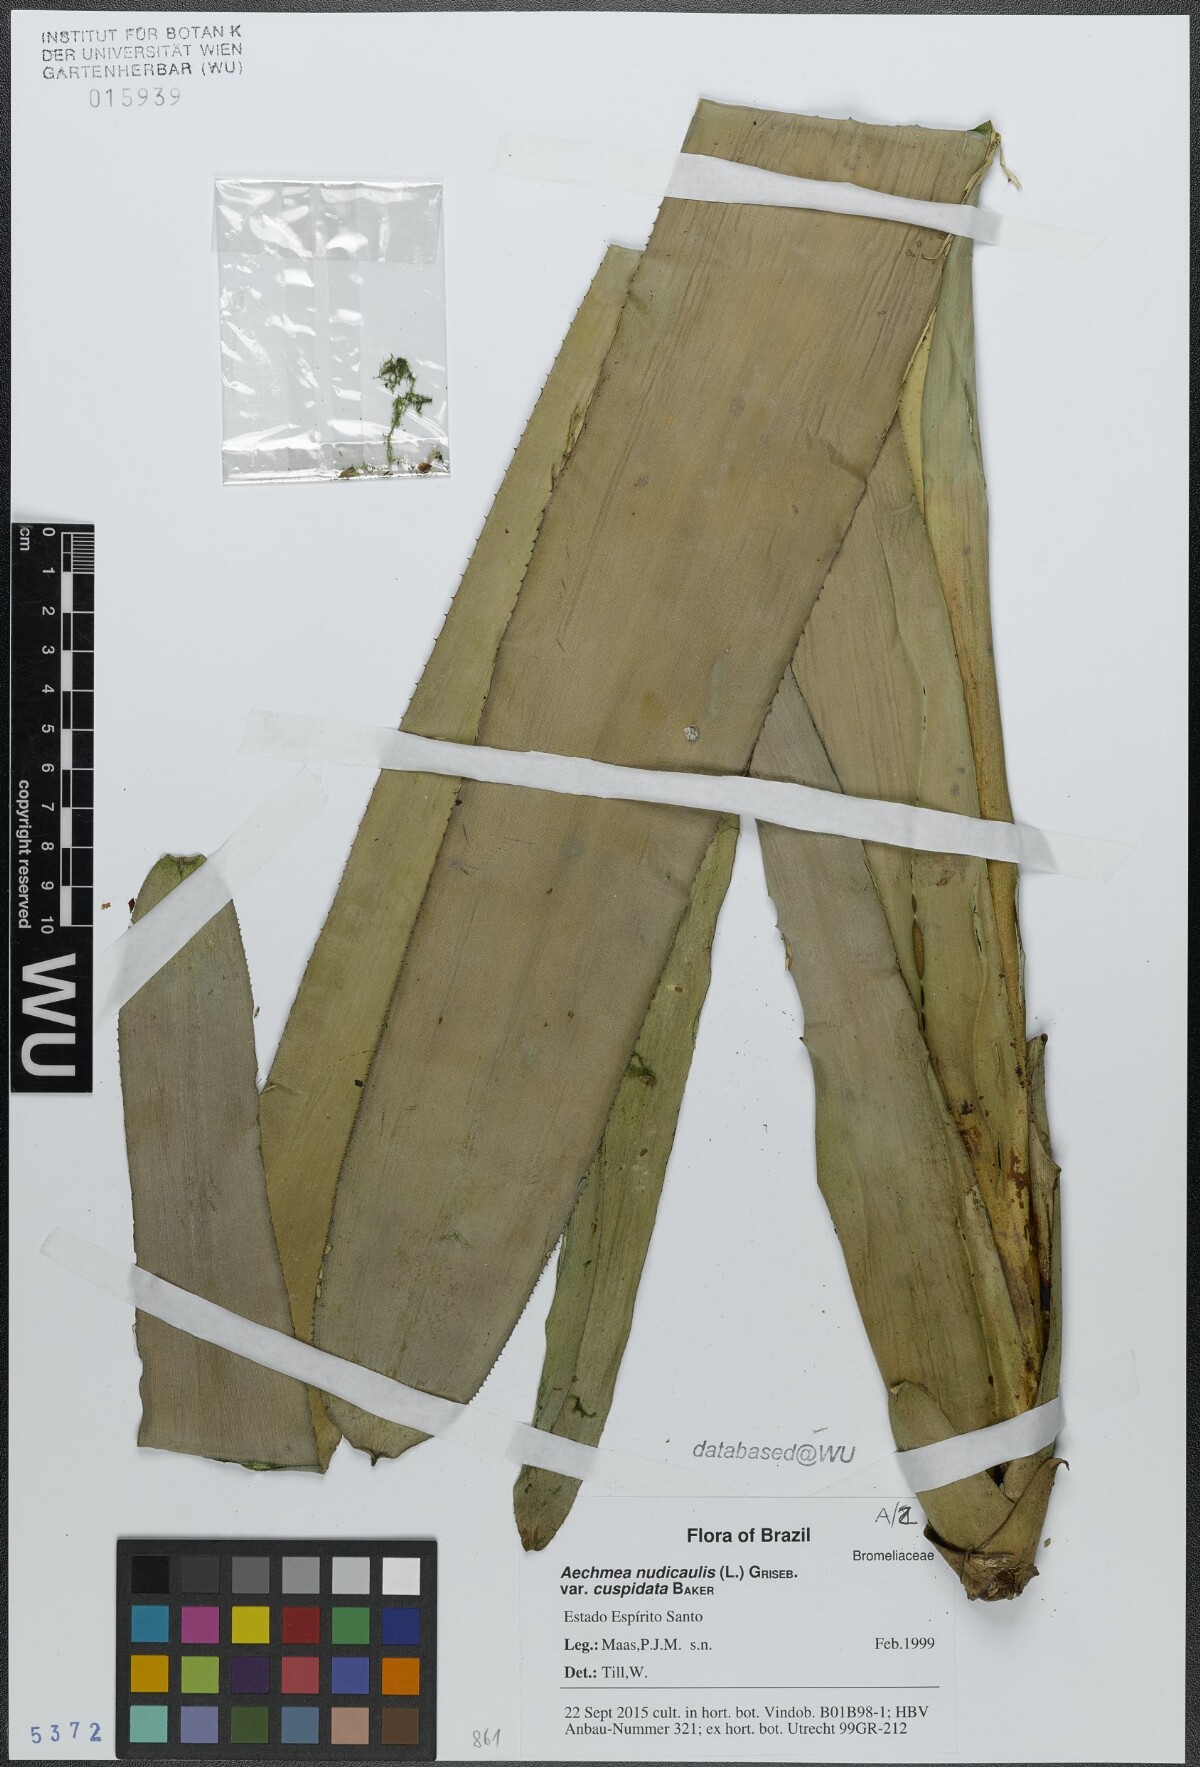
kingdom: Plantae
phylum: Tracheophyta
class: Liliopsida
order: Poales
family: Bromeliaceae
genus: Aechmea
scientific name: Aechmea nudicaulis
